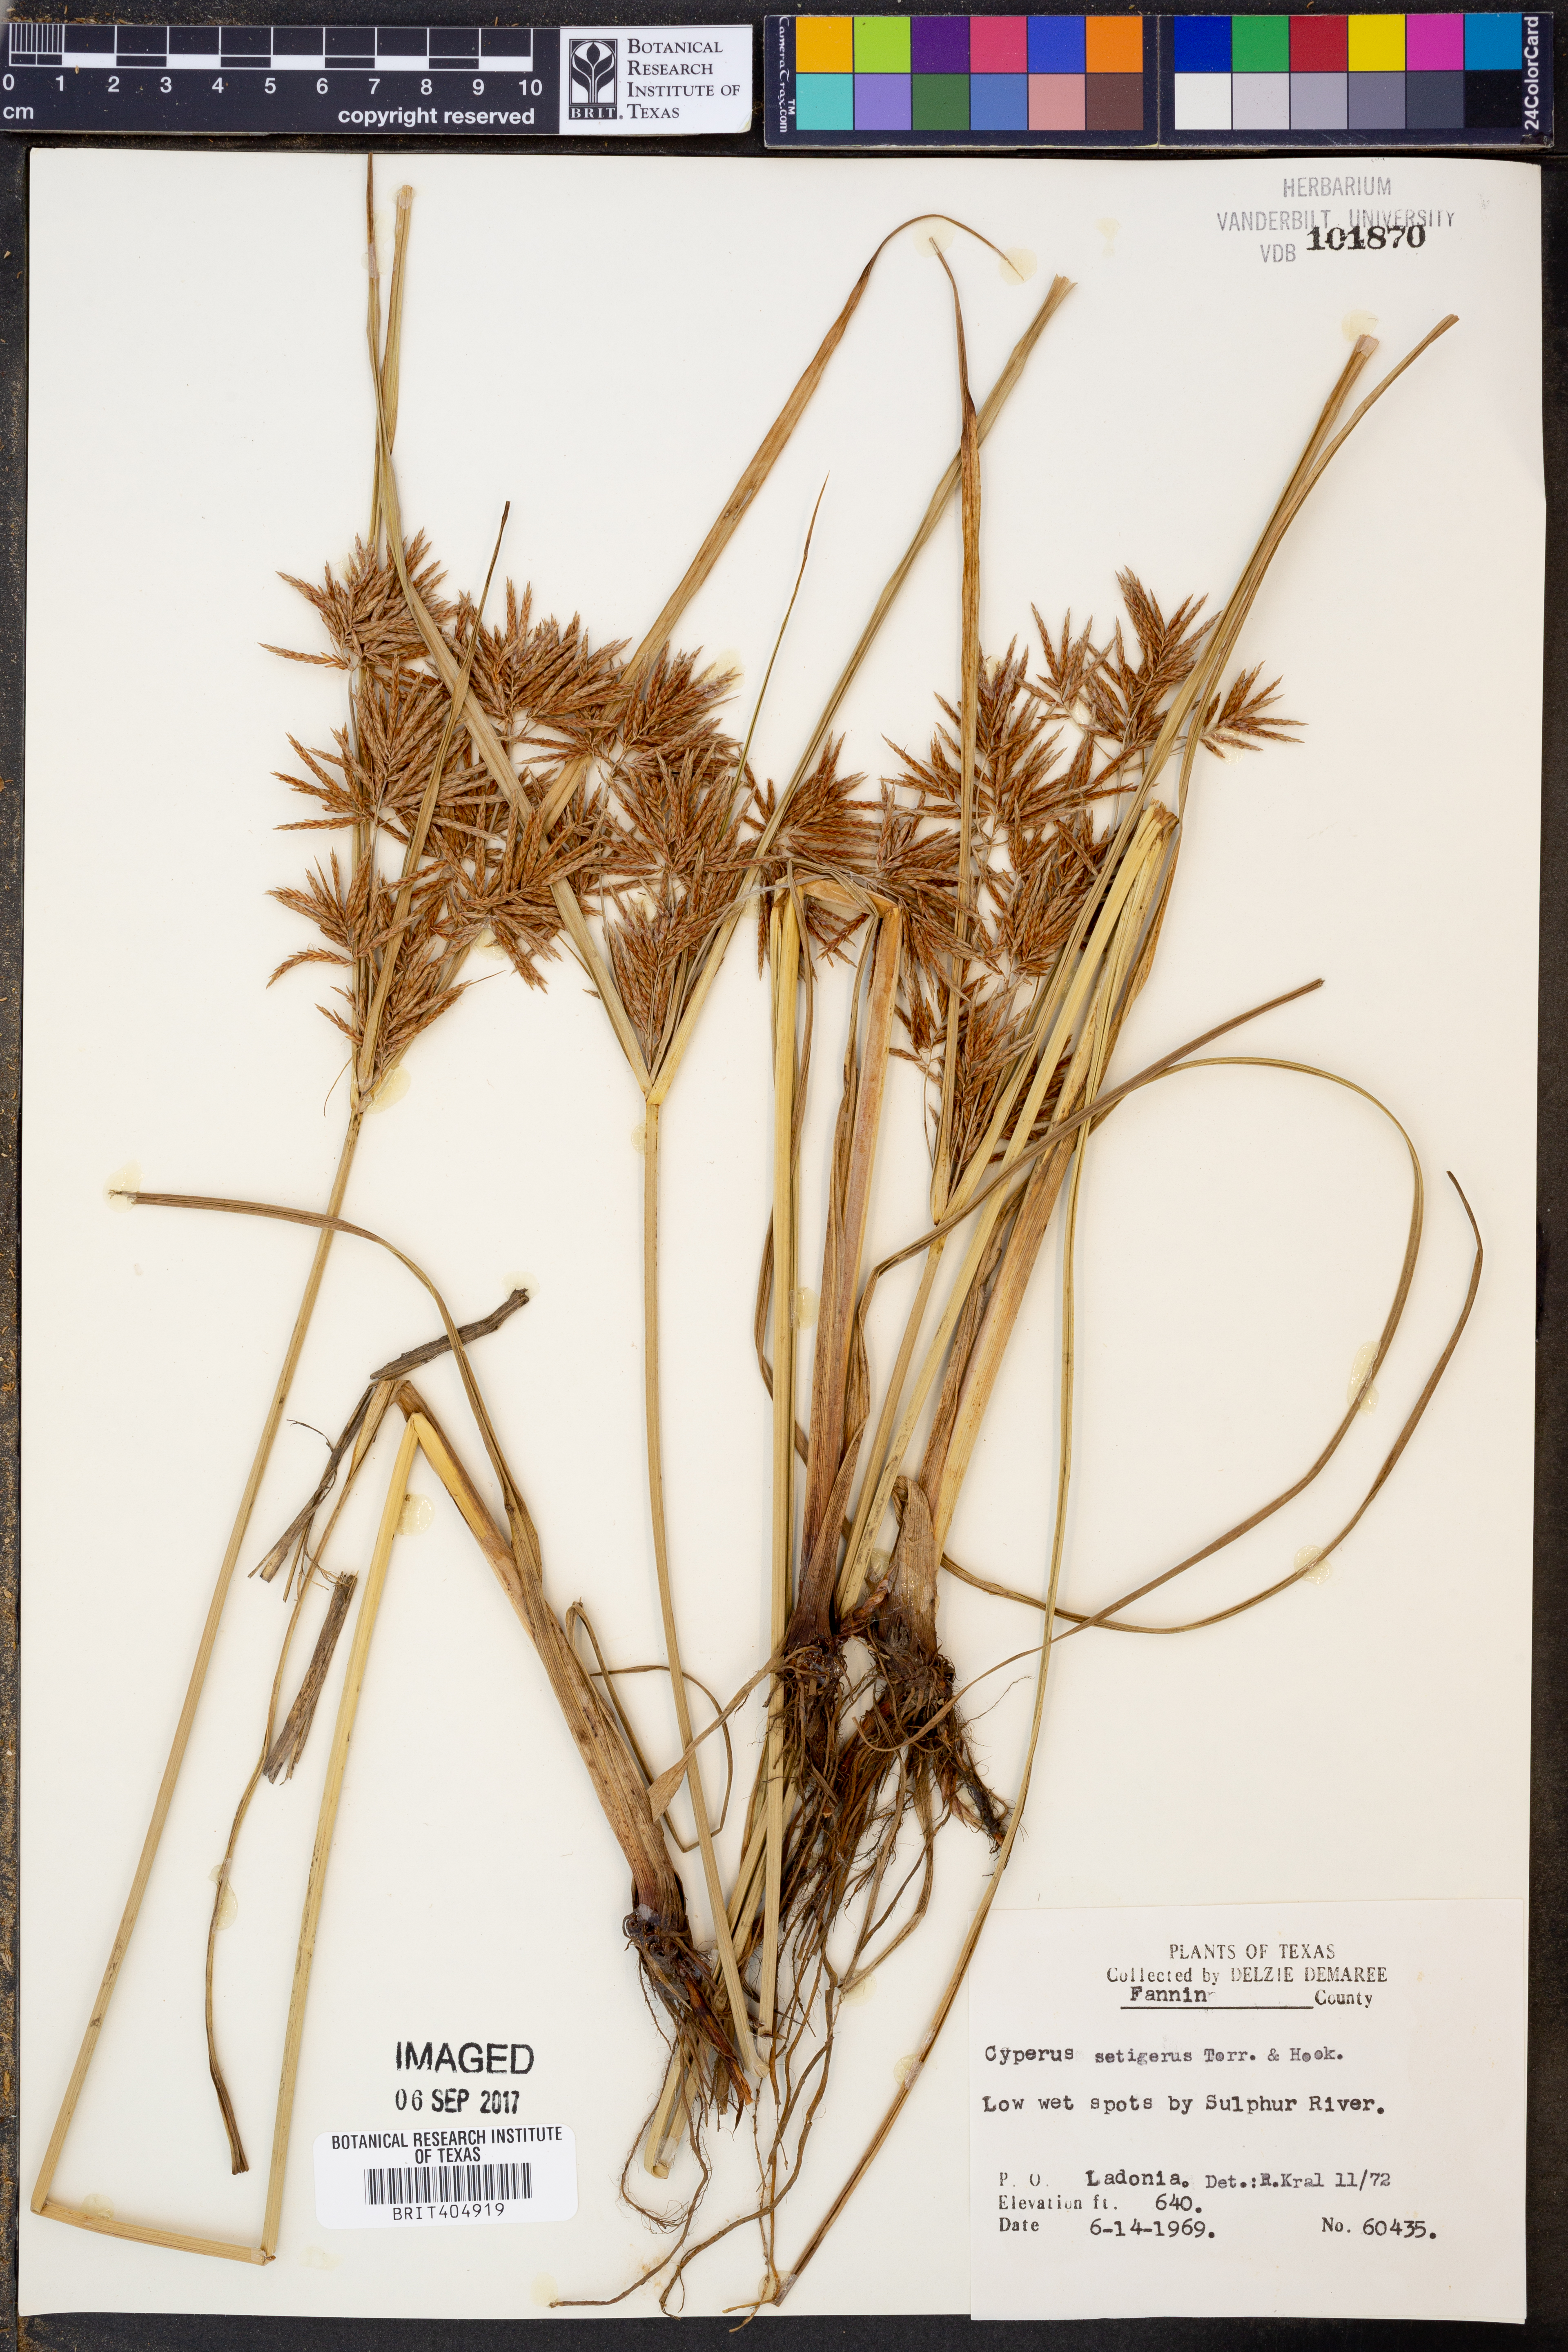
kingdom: Plantae
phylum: Tracheophyta
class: Liliopsida
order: Poales
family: Cyperaceae
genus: Cyperus
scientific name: Cyperus setigerus
